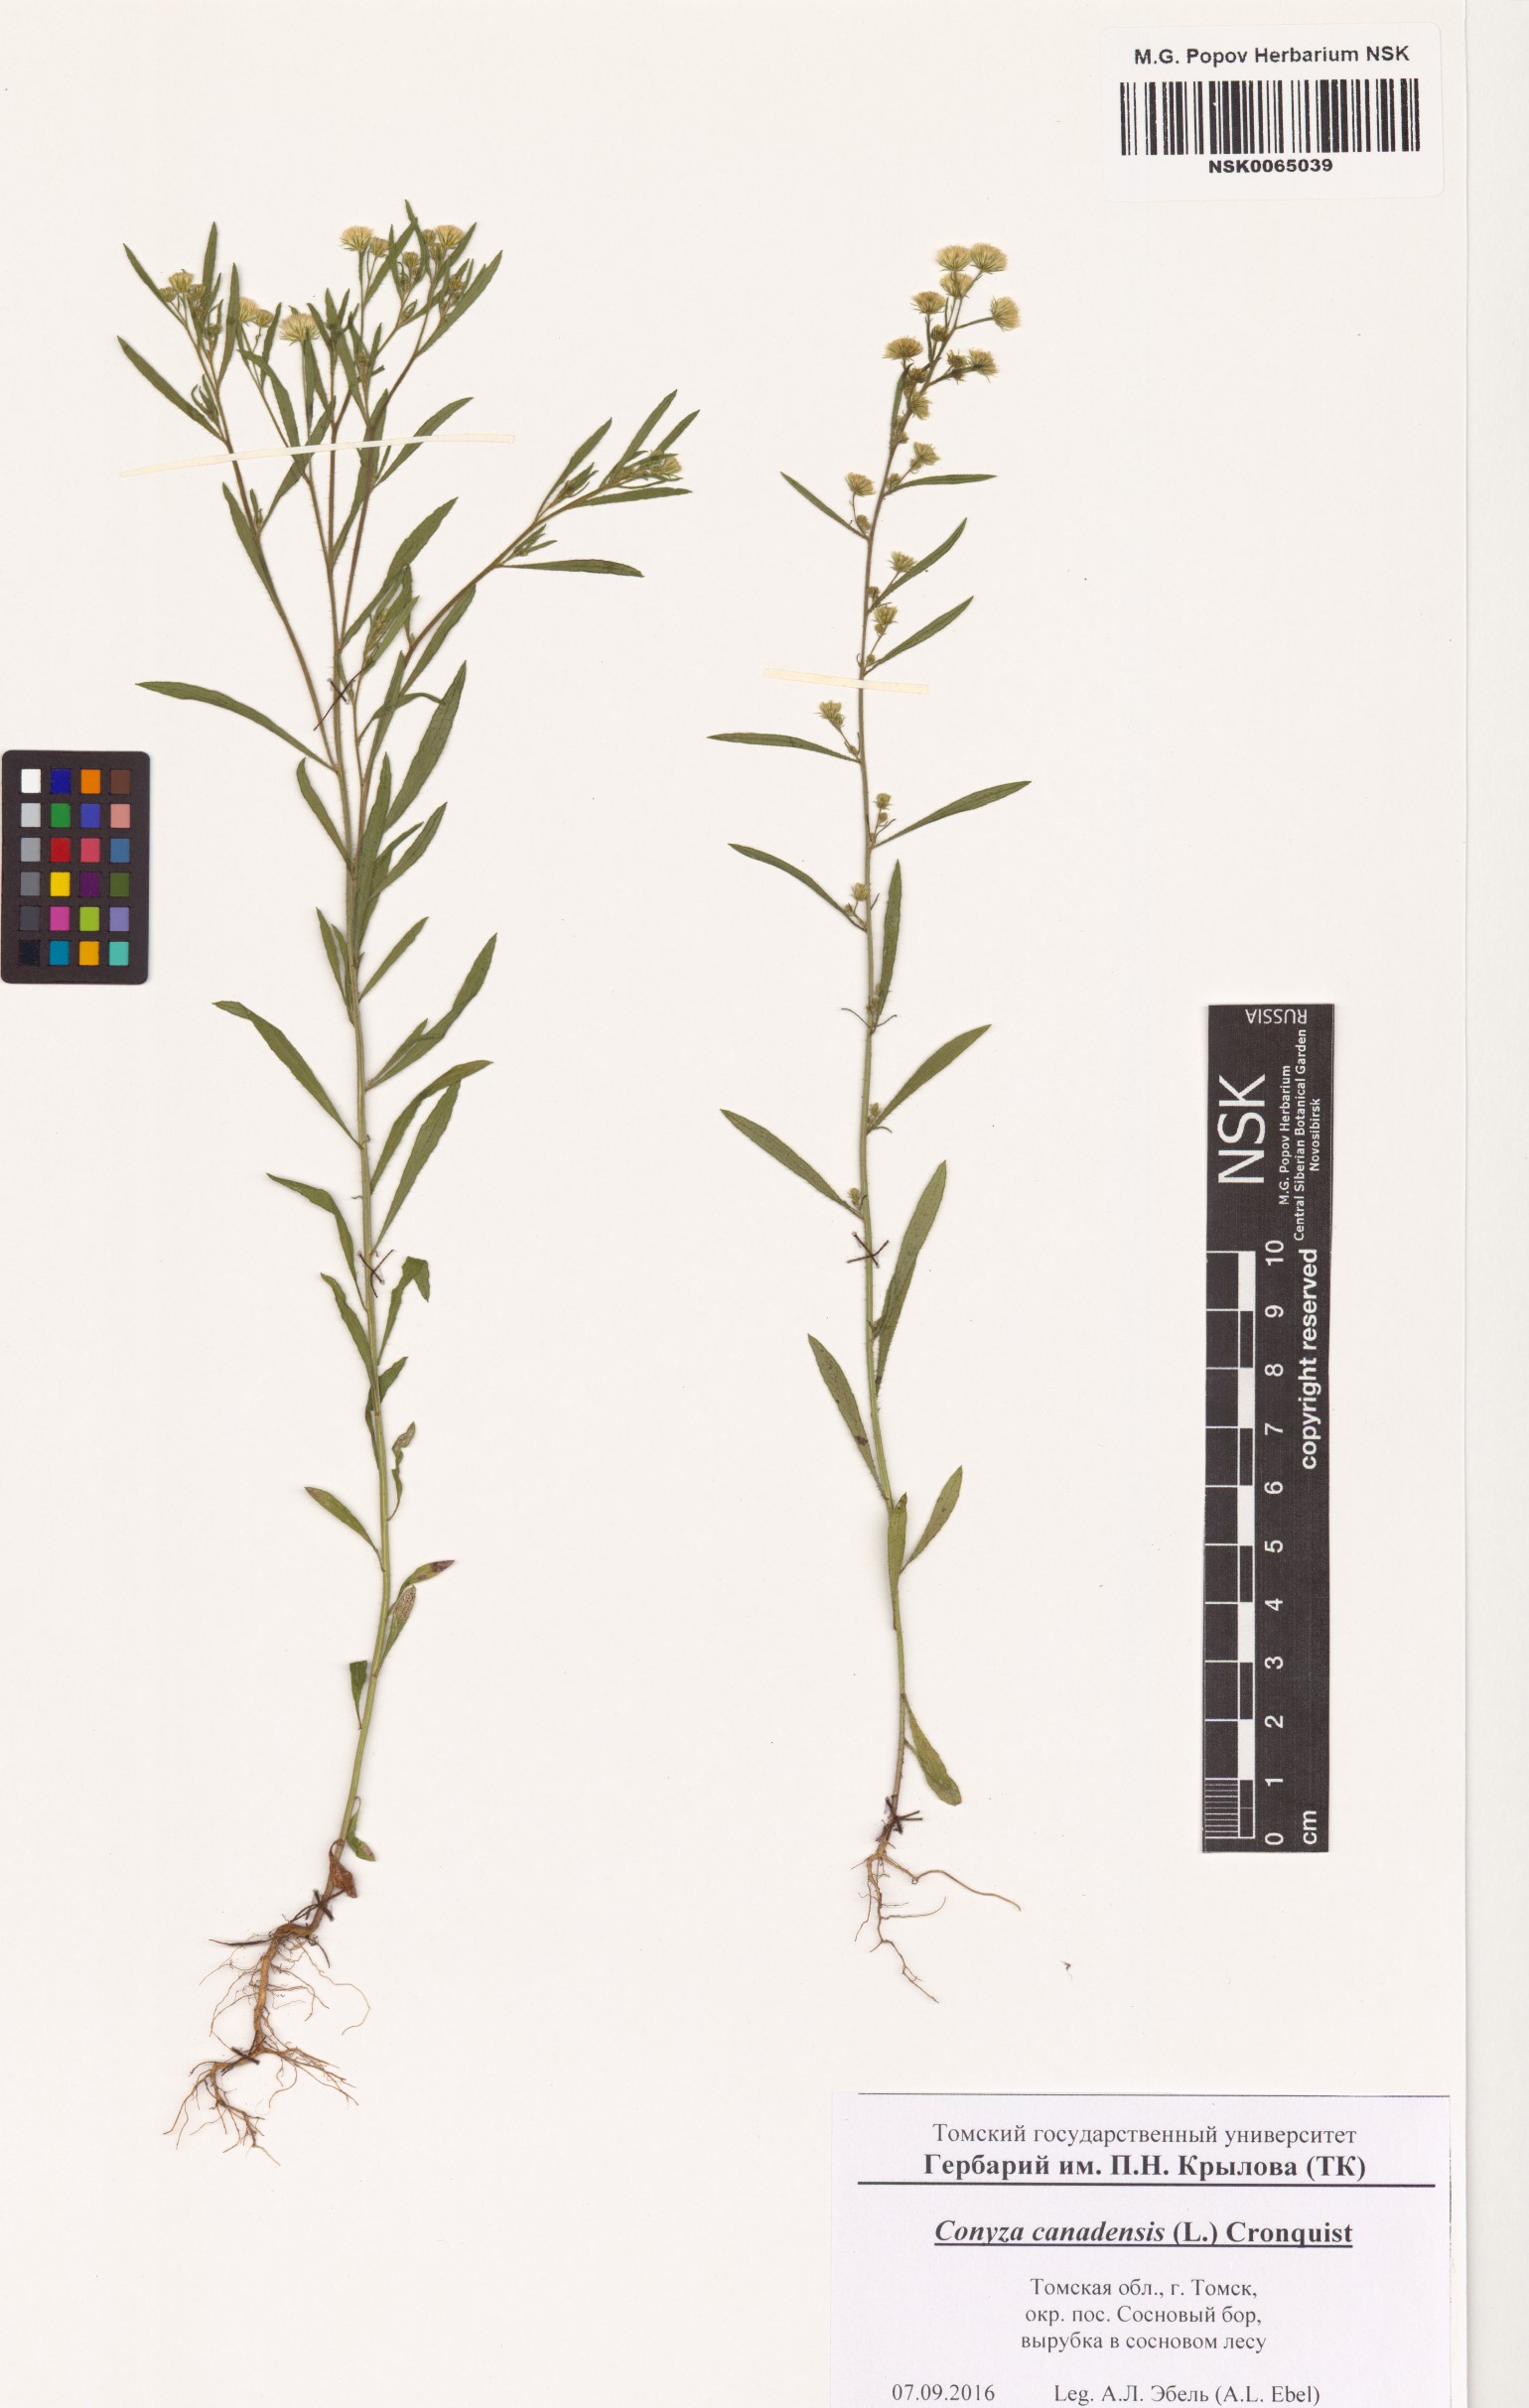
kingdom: Plantae
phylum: Tracheophyta
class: Magnoliopsida
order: Asterales
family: Asteraceae
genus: Erigeron
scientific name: Erigeron canadensis
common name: Canadian fleabane
